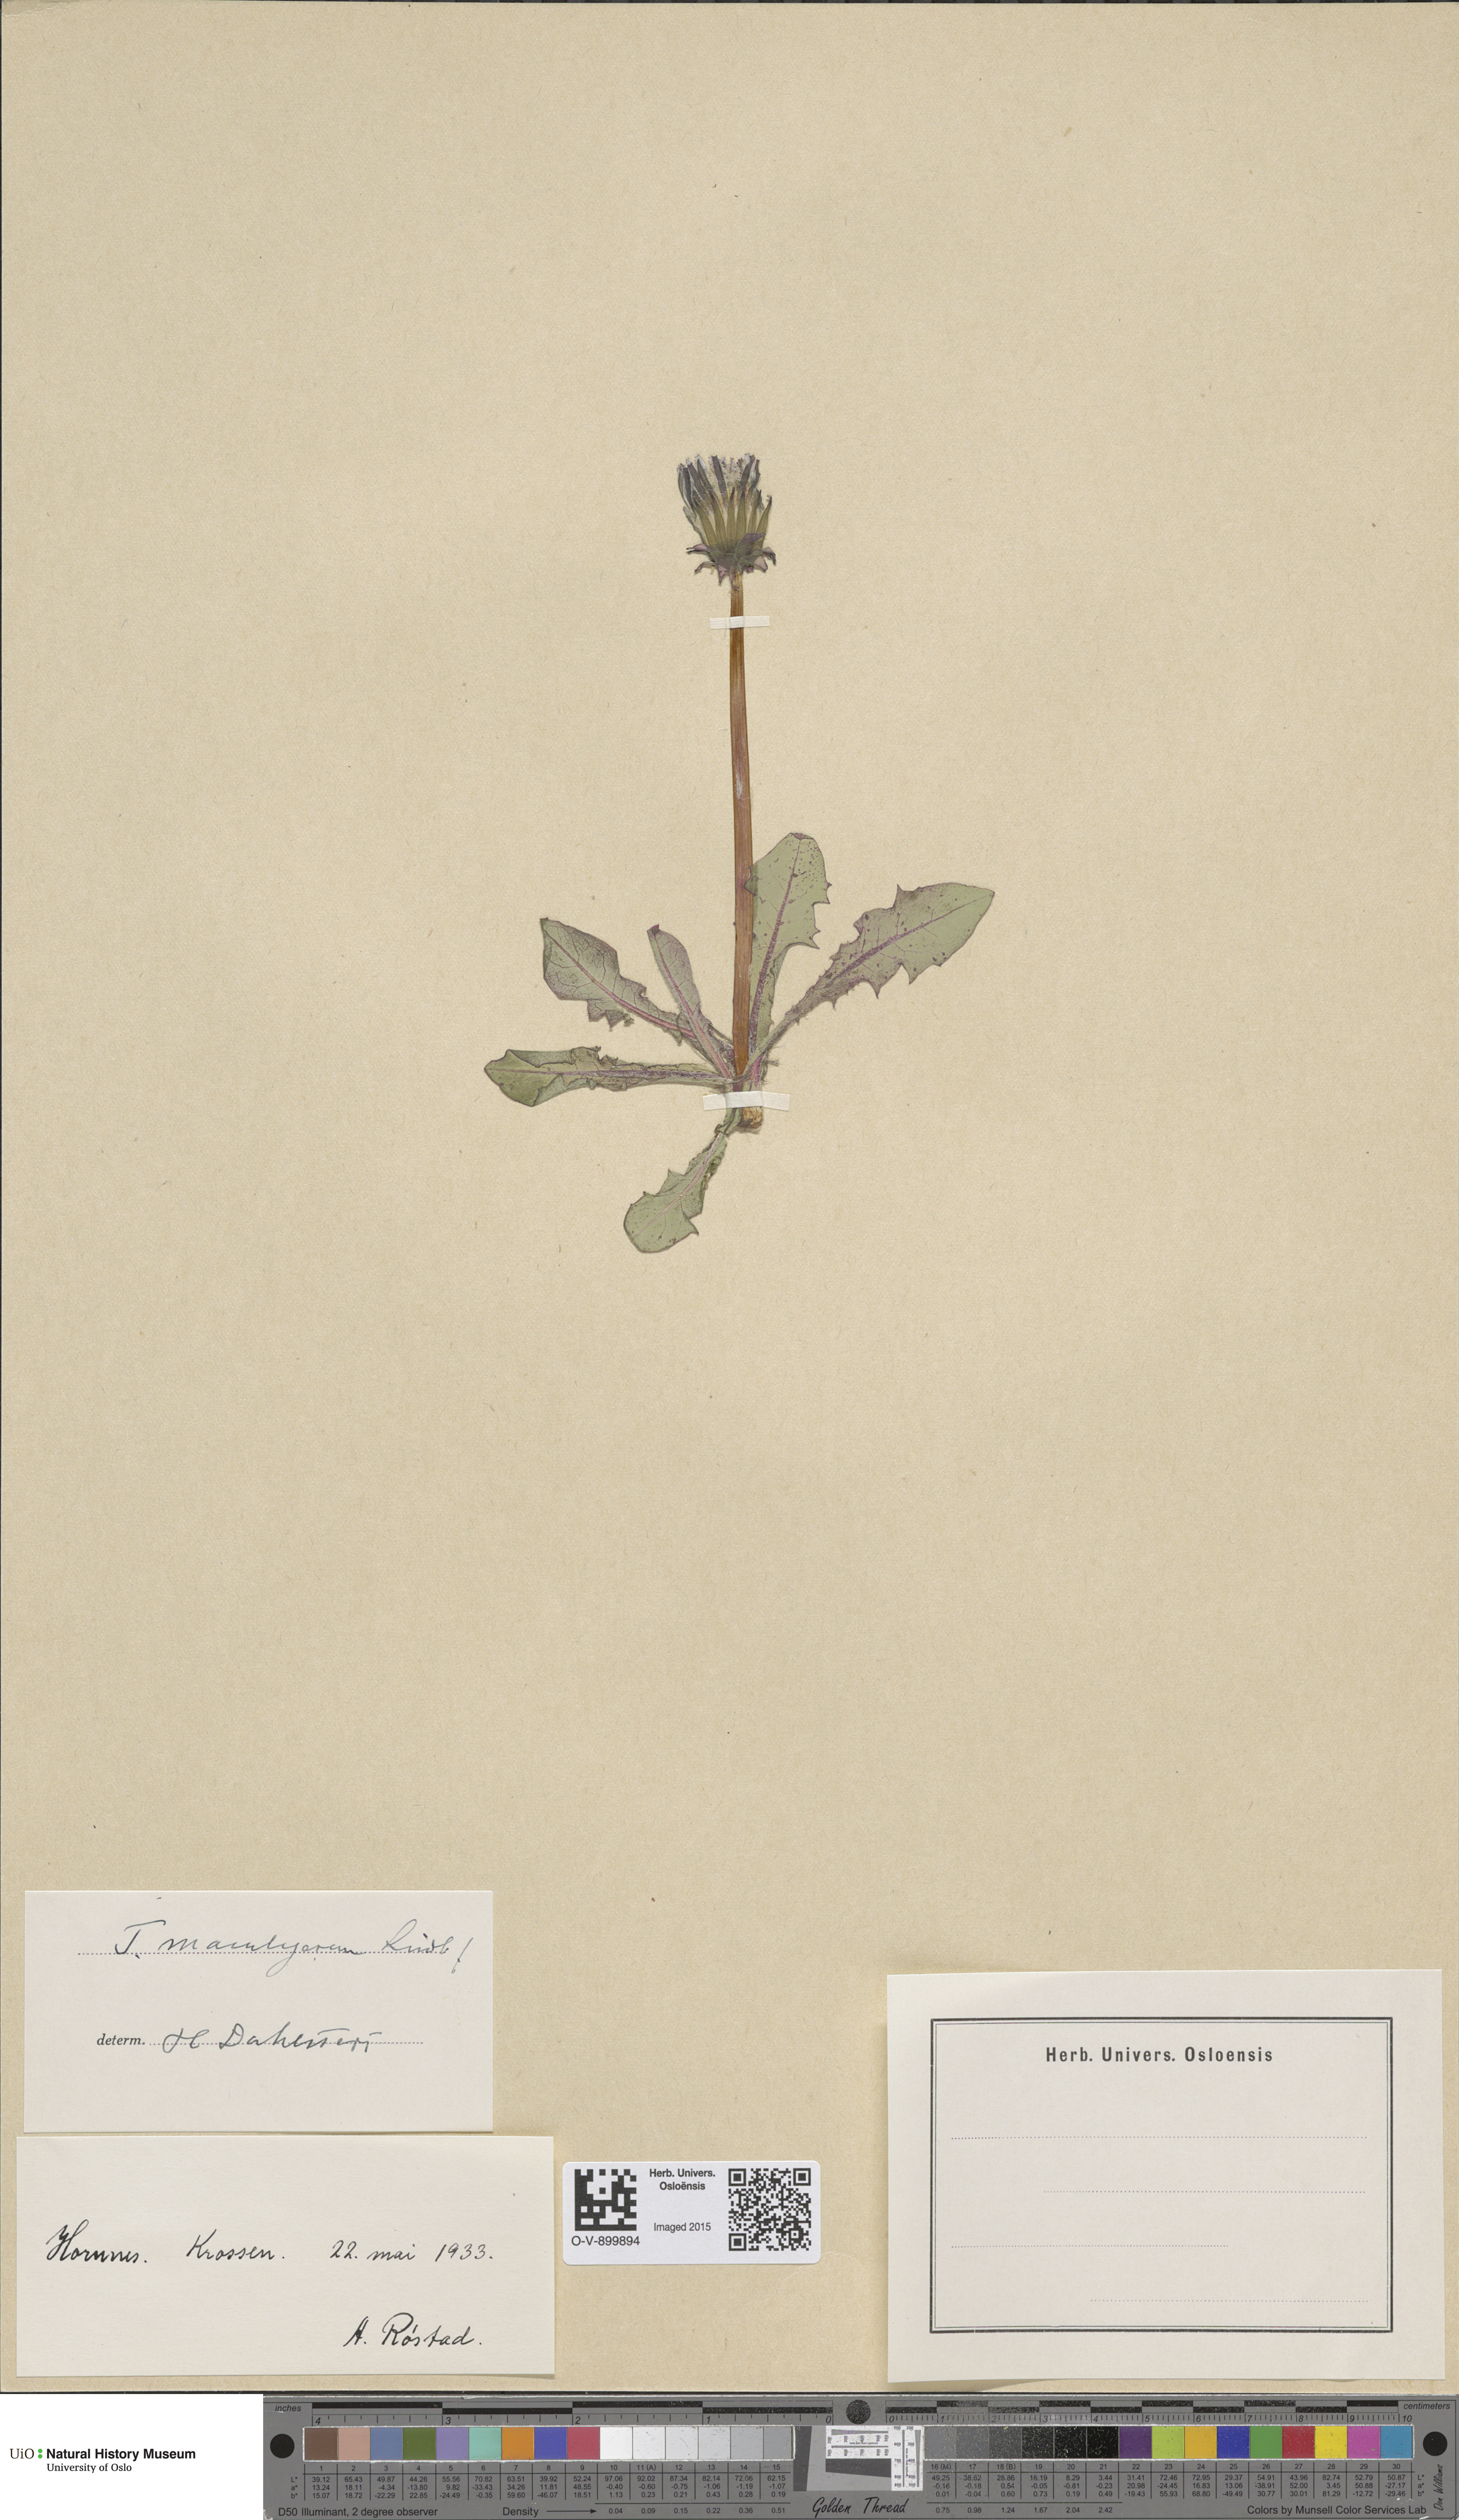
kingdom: Plantae
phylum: Tracheophyta
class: Magnoliopsida
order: Asterales
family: Asteraceae
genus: Taraxacum
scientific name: Taraxacum maculigerum
